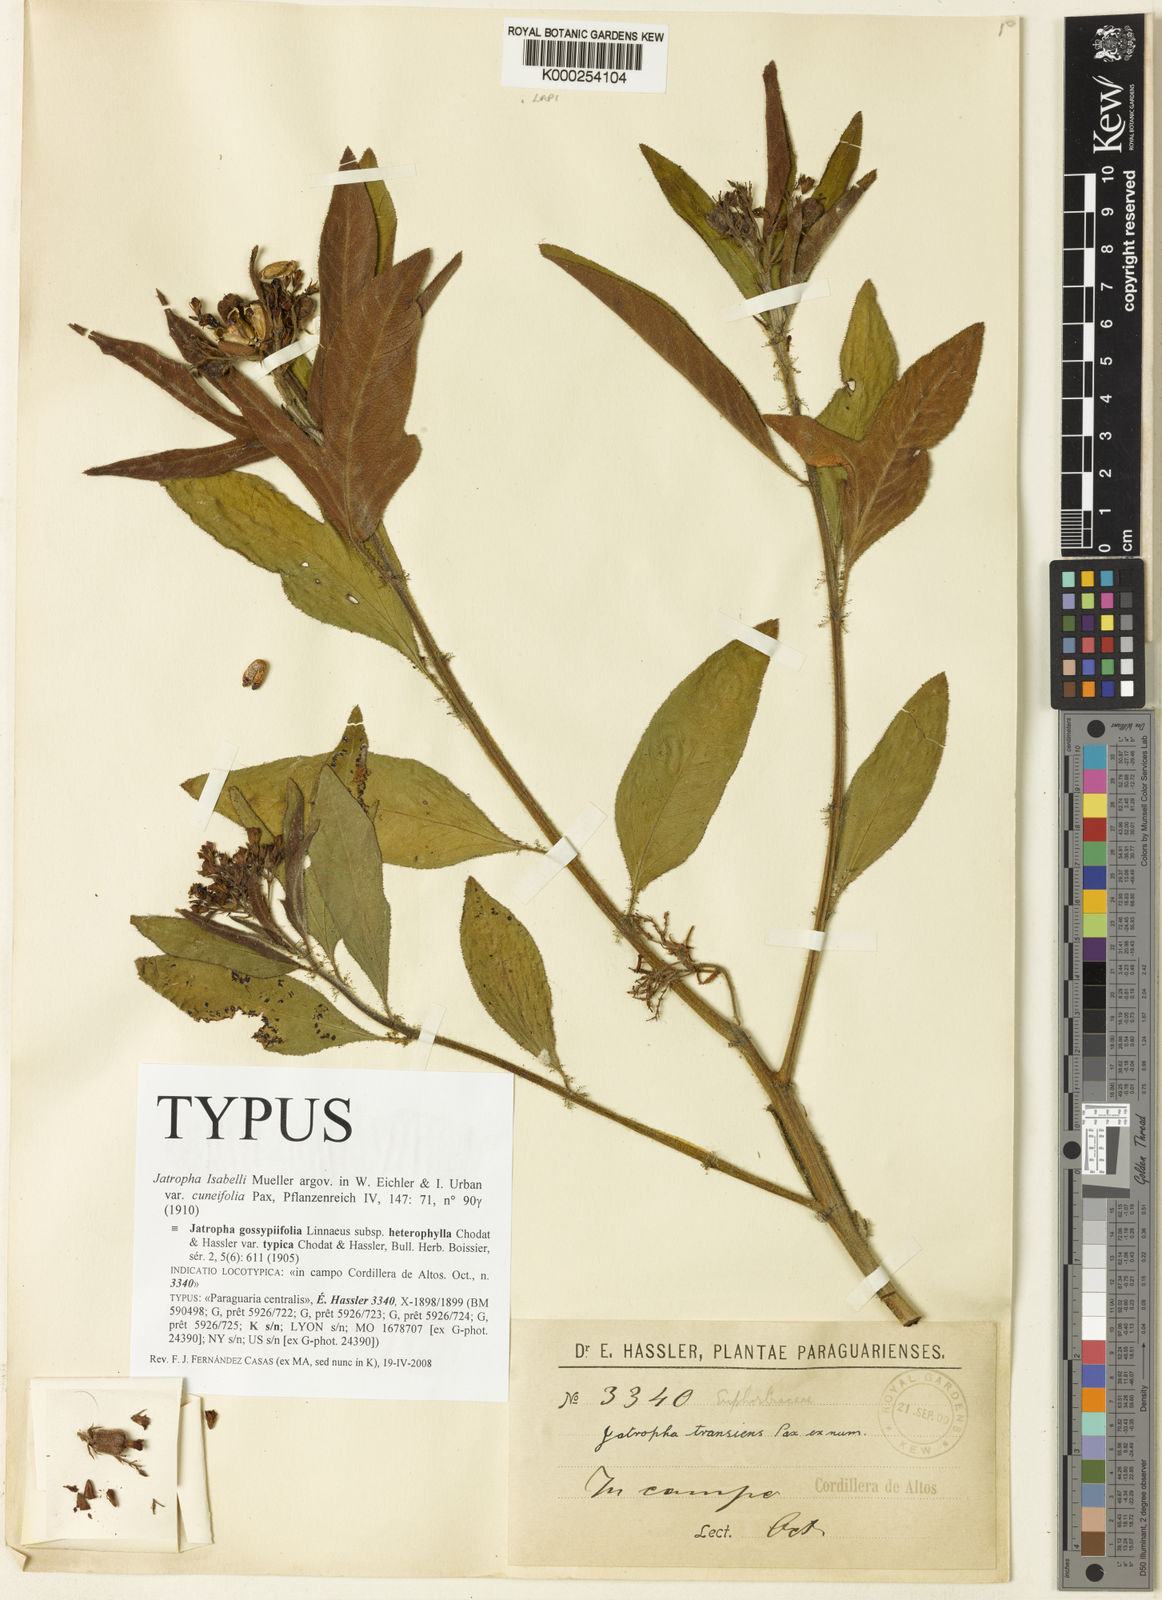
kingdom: Plantae
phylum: Tracheophyta
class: Magnoliopsida
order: Malpighiales
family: Euphorbiaceae
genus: Jatropha
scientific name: Jatropha
